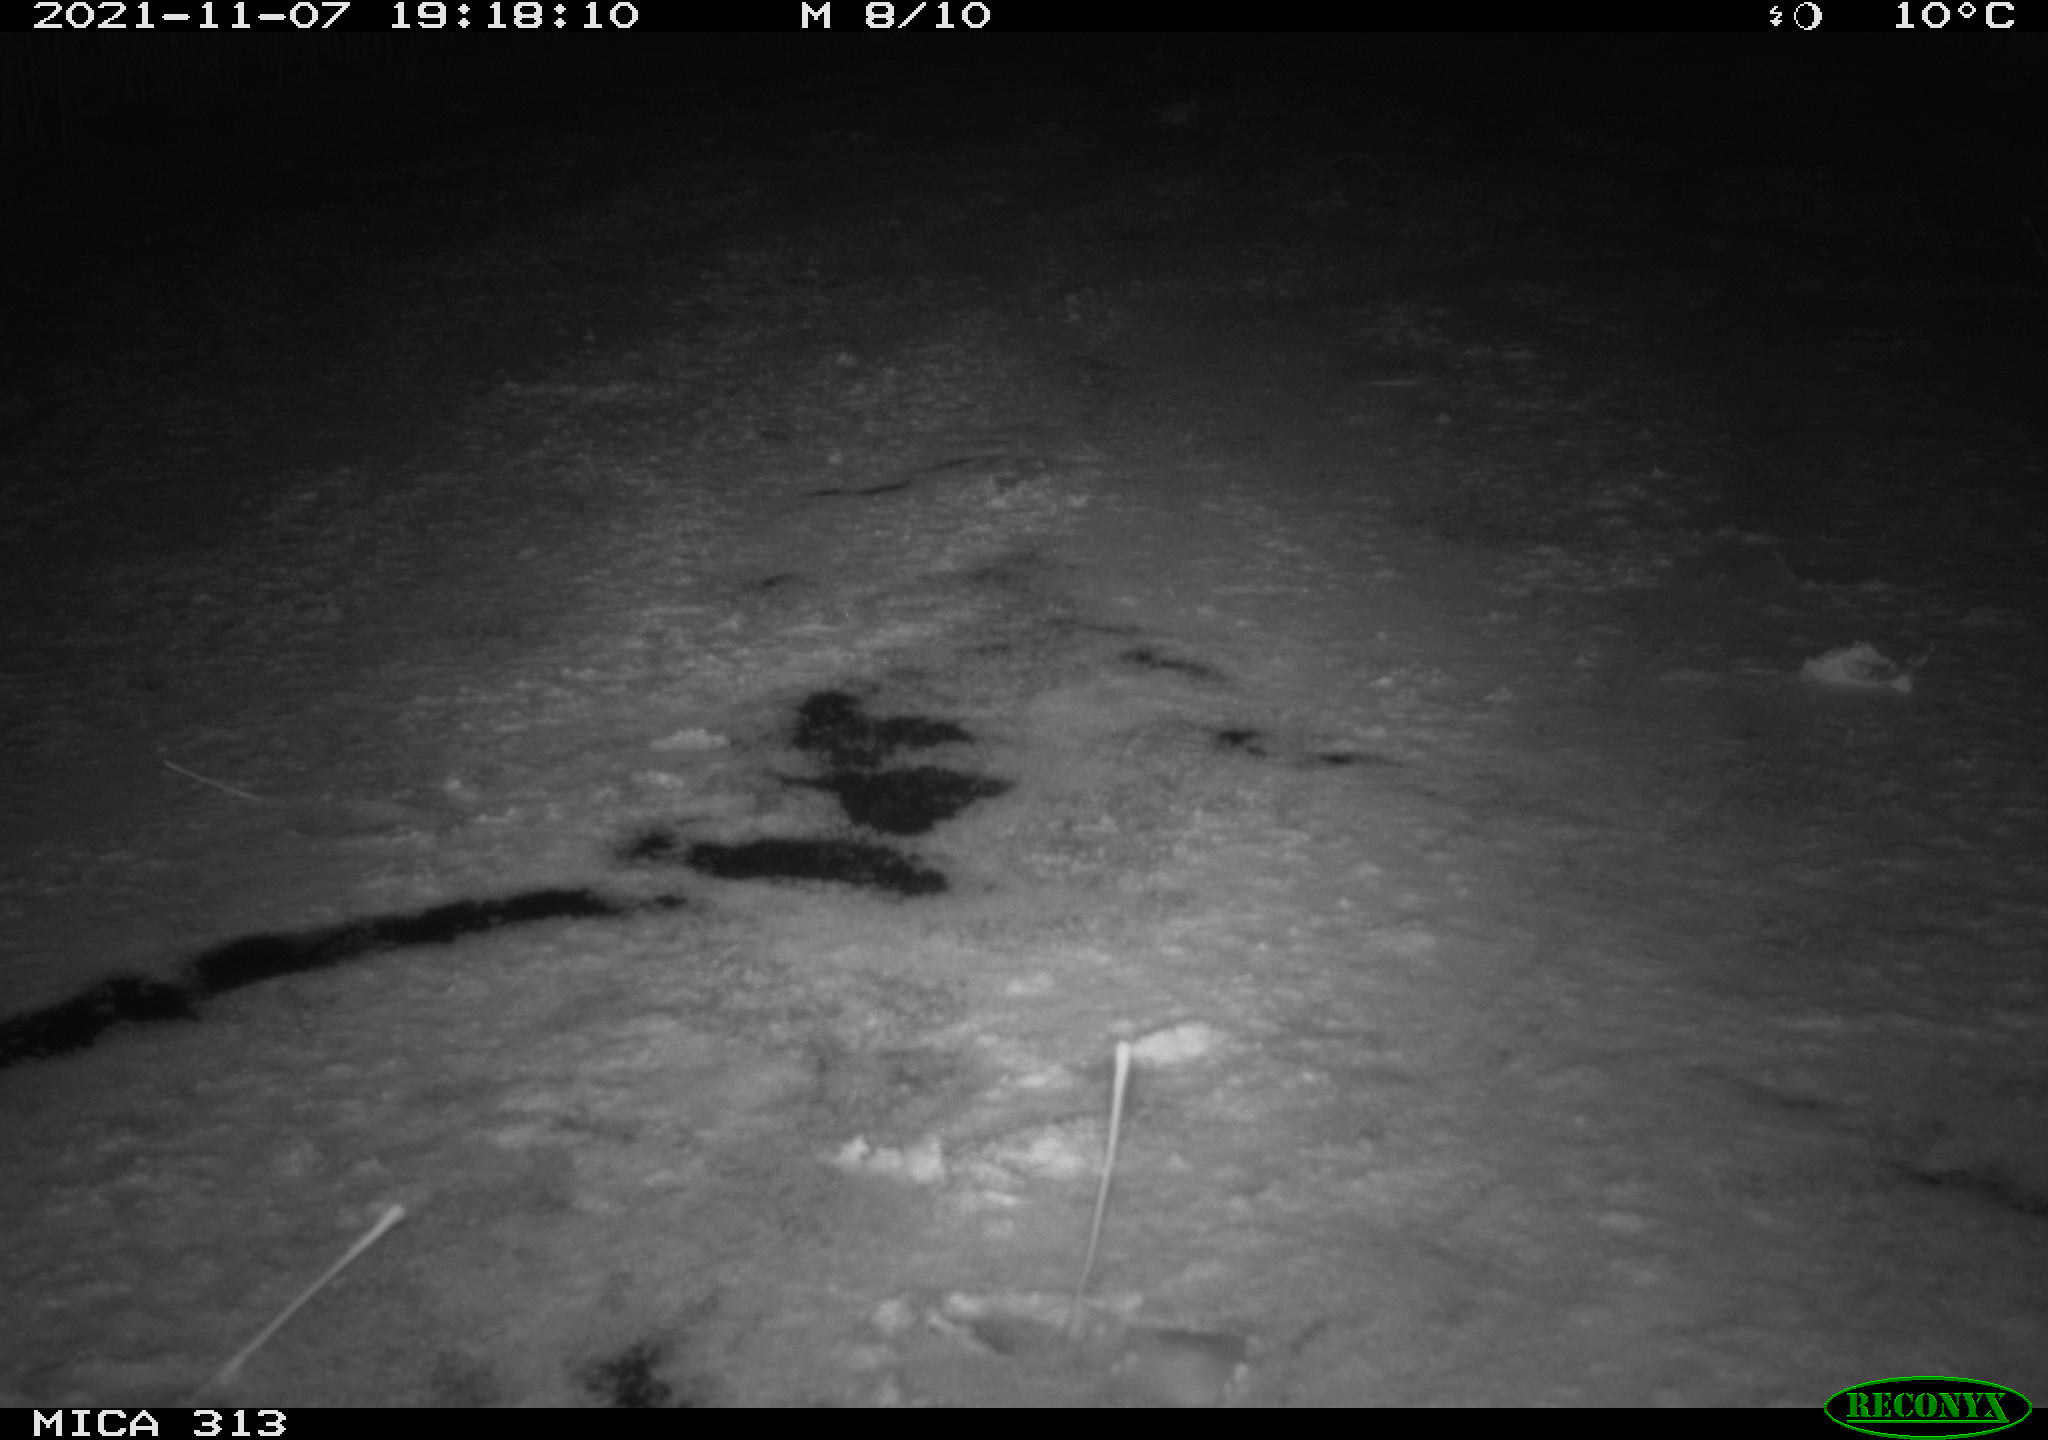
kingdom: Animalia
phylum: Chordata
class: Aves
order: Gruiformes
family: Rallidae
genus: Gallinula
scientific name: Gallinula chloropus
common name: Common moorhen
